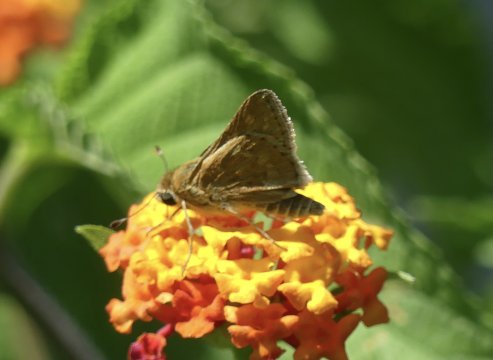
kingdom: Animalia
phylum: Arthropoda
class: Insecta
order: Lepidoptera
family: Hesperiidae
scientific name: Hesperiidae
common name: Skippers
